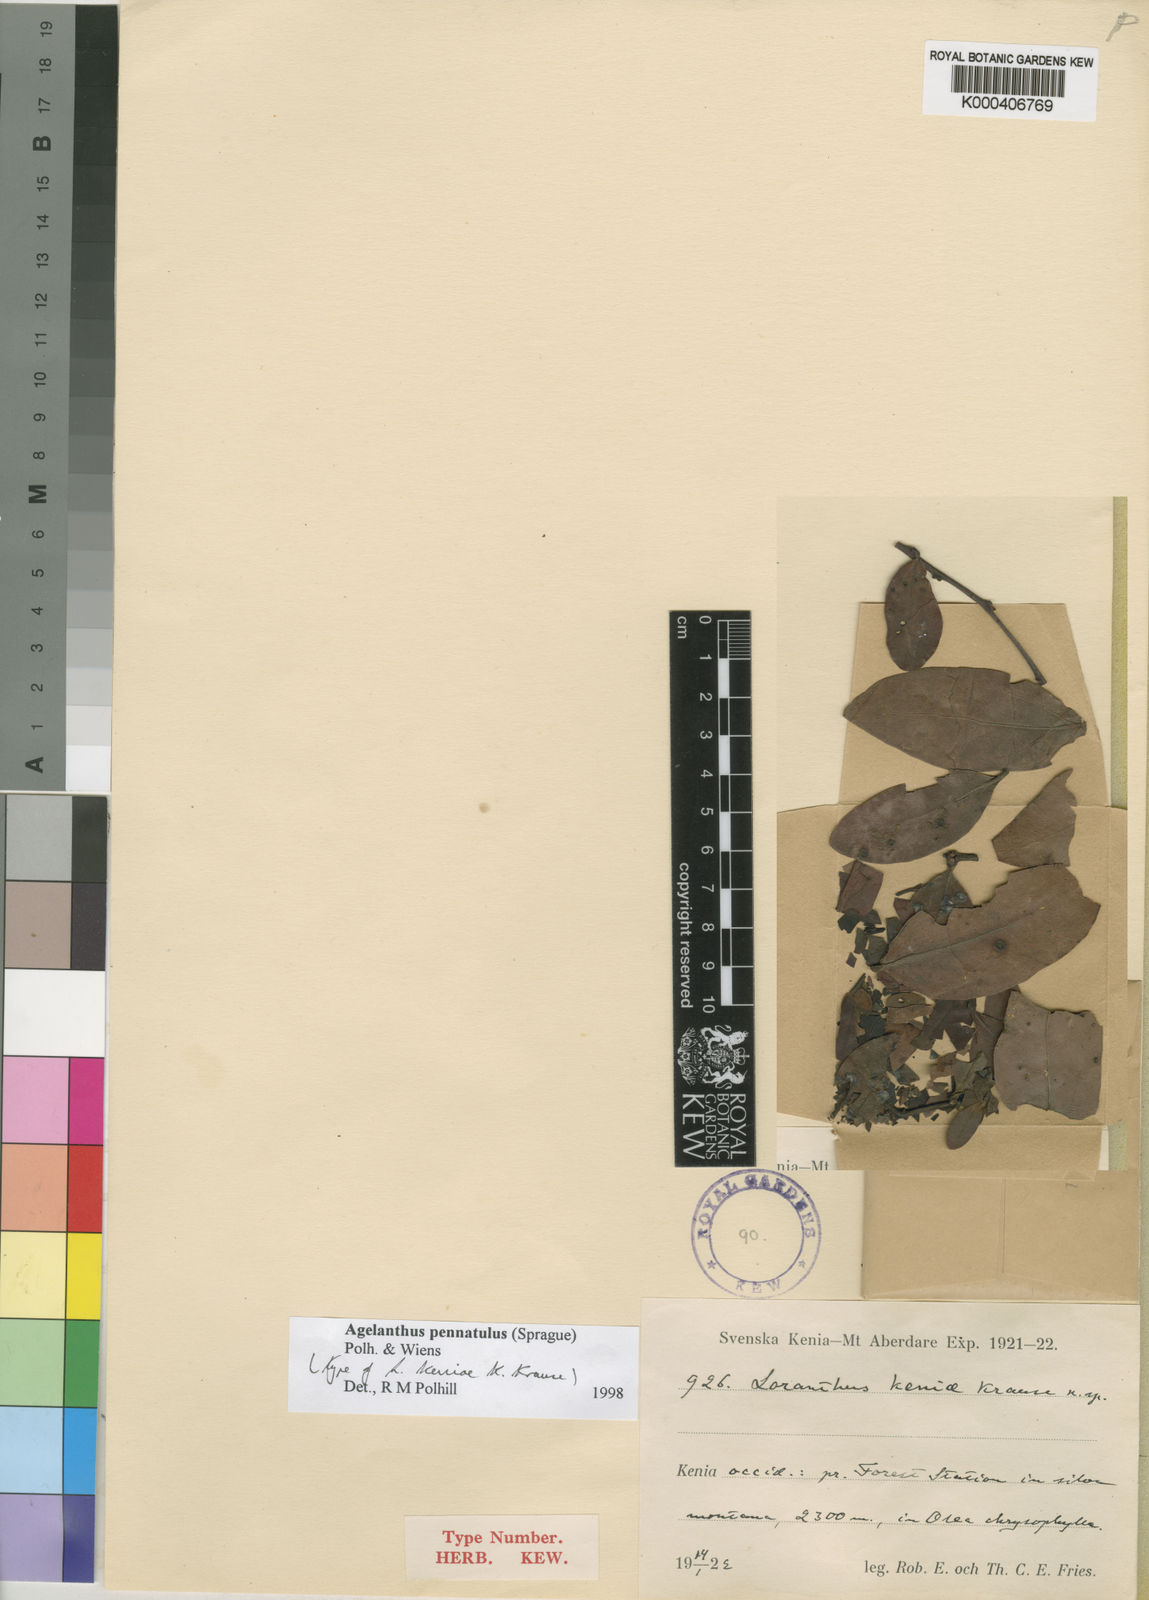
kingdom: Plantae
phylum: Tracheophyta
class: Magnoliopsida
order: Santalales
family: Loranthaceae
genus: Agelanthus
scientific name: Agelanthus pennatulus
